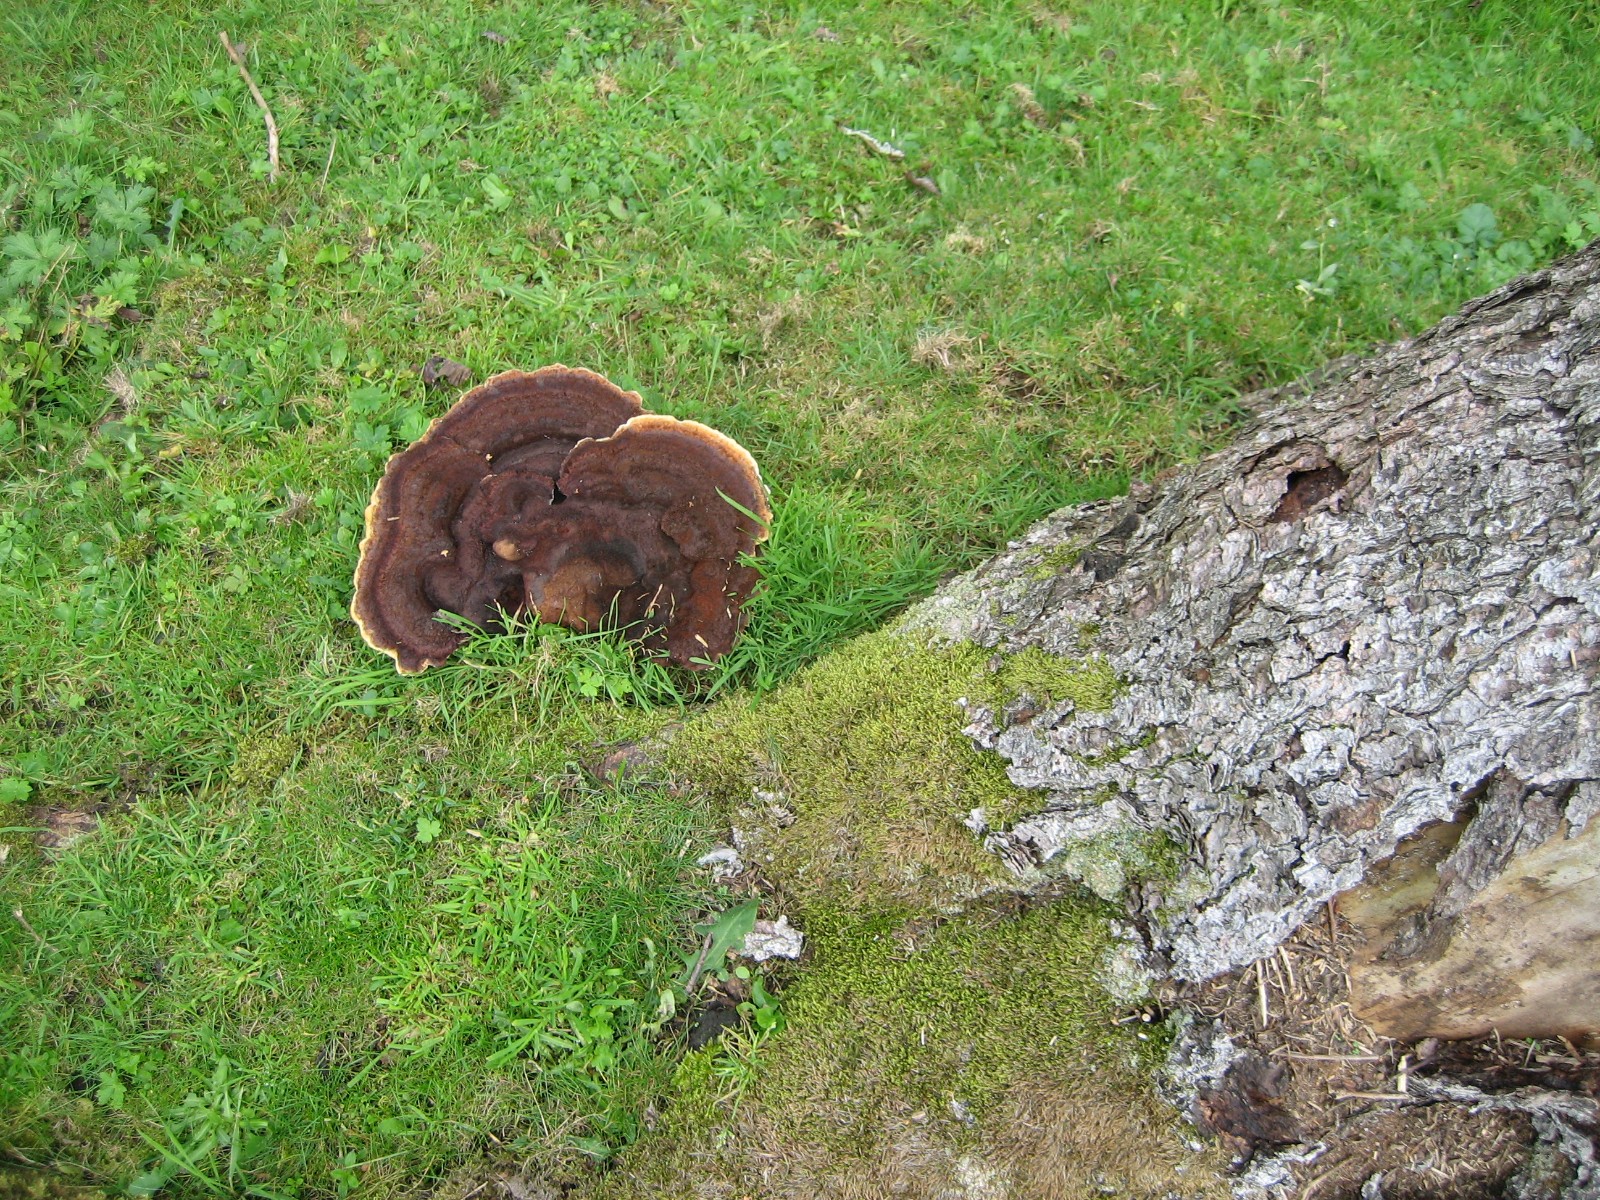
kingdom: Fungi
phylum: Basidiomycota
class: Agaricomycetes
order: Polyporales
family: Laetiporaceae
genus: Phaeolus
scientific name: Phaeolus schweinitzii
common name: brunporesvamp
